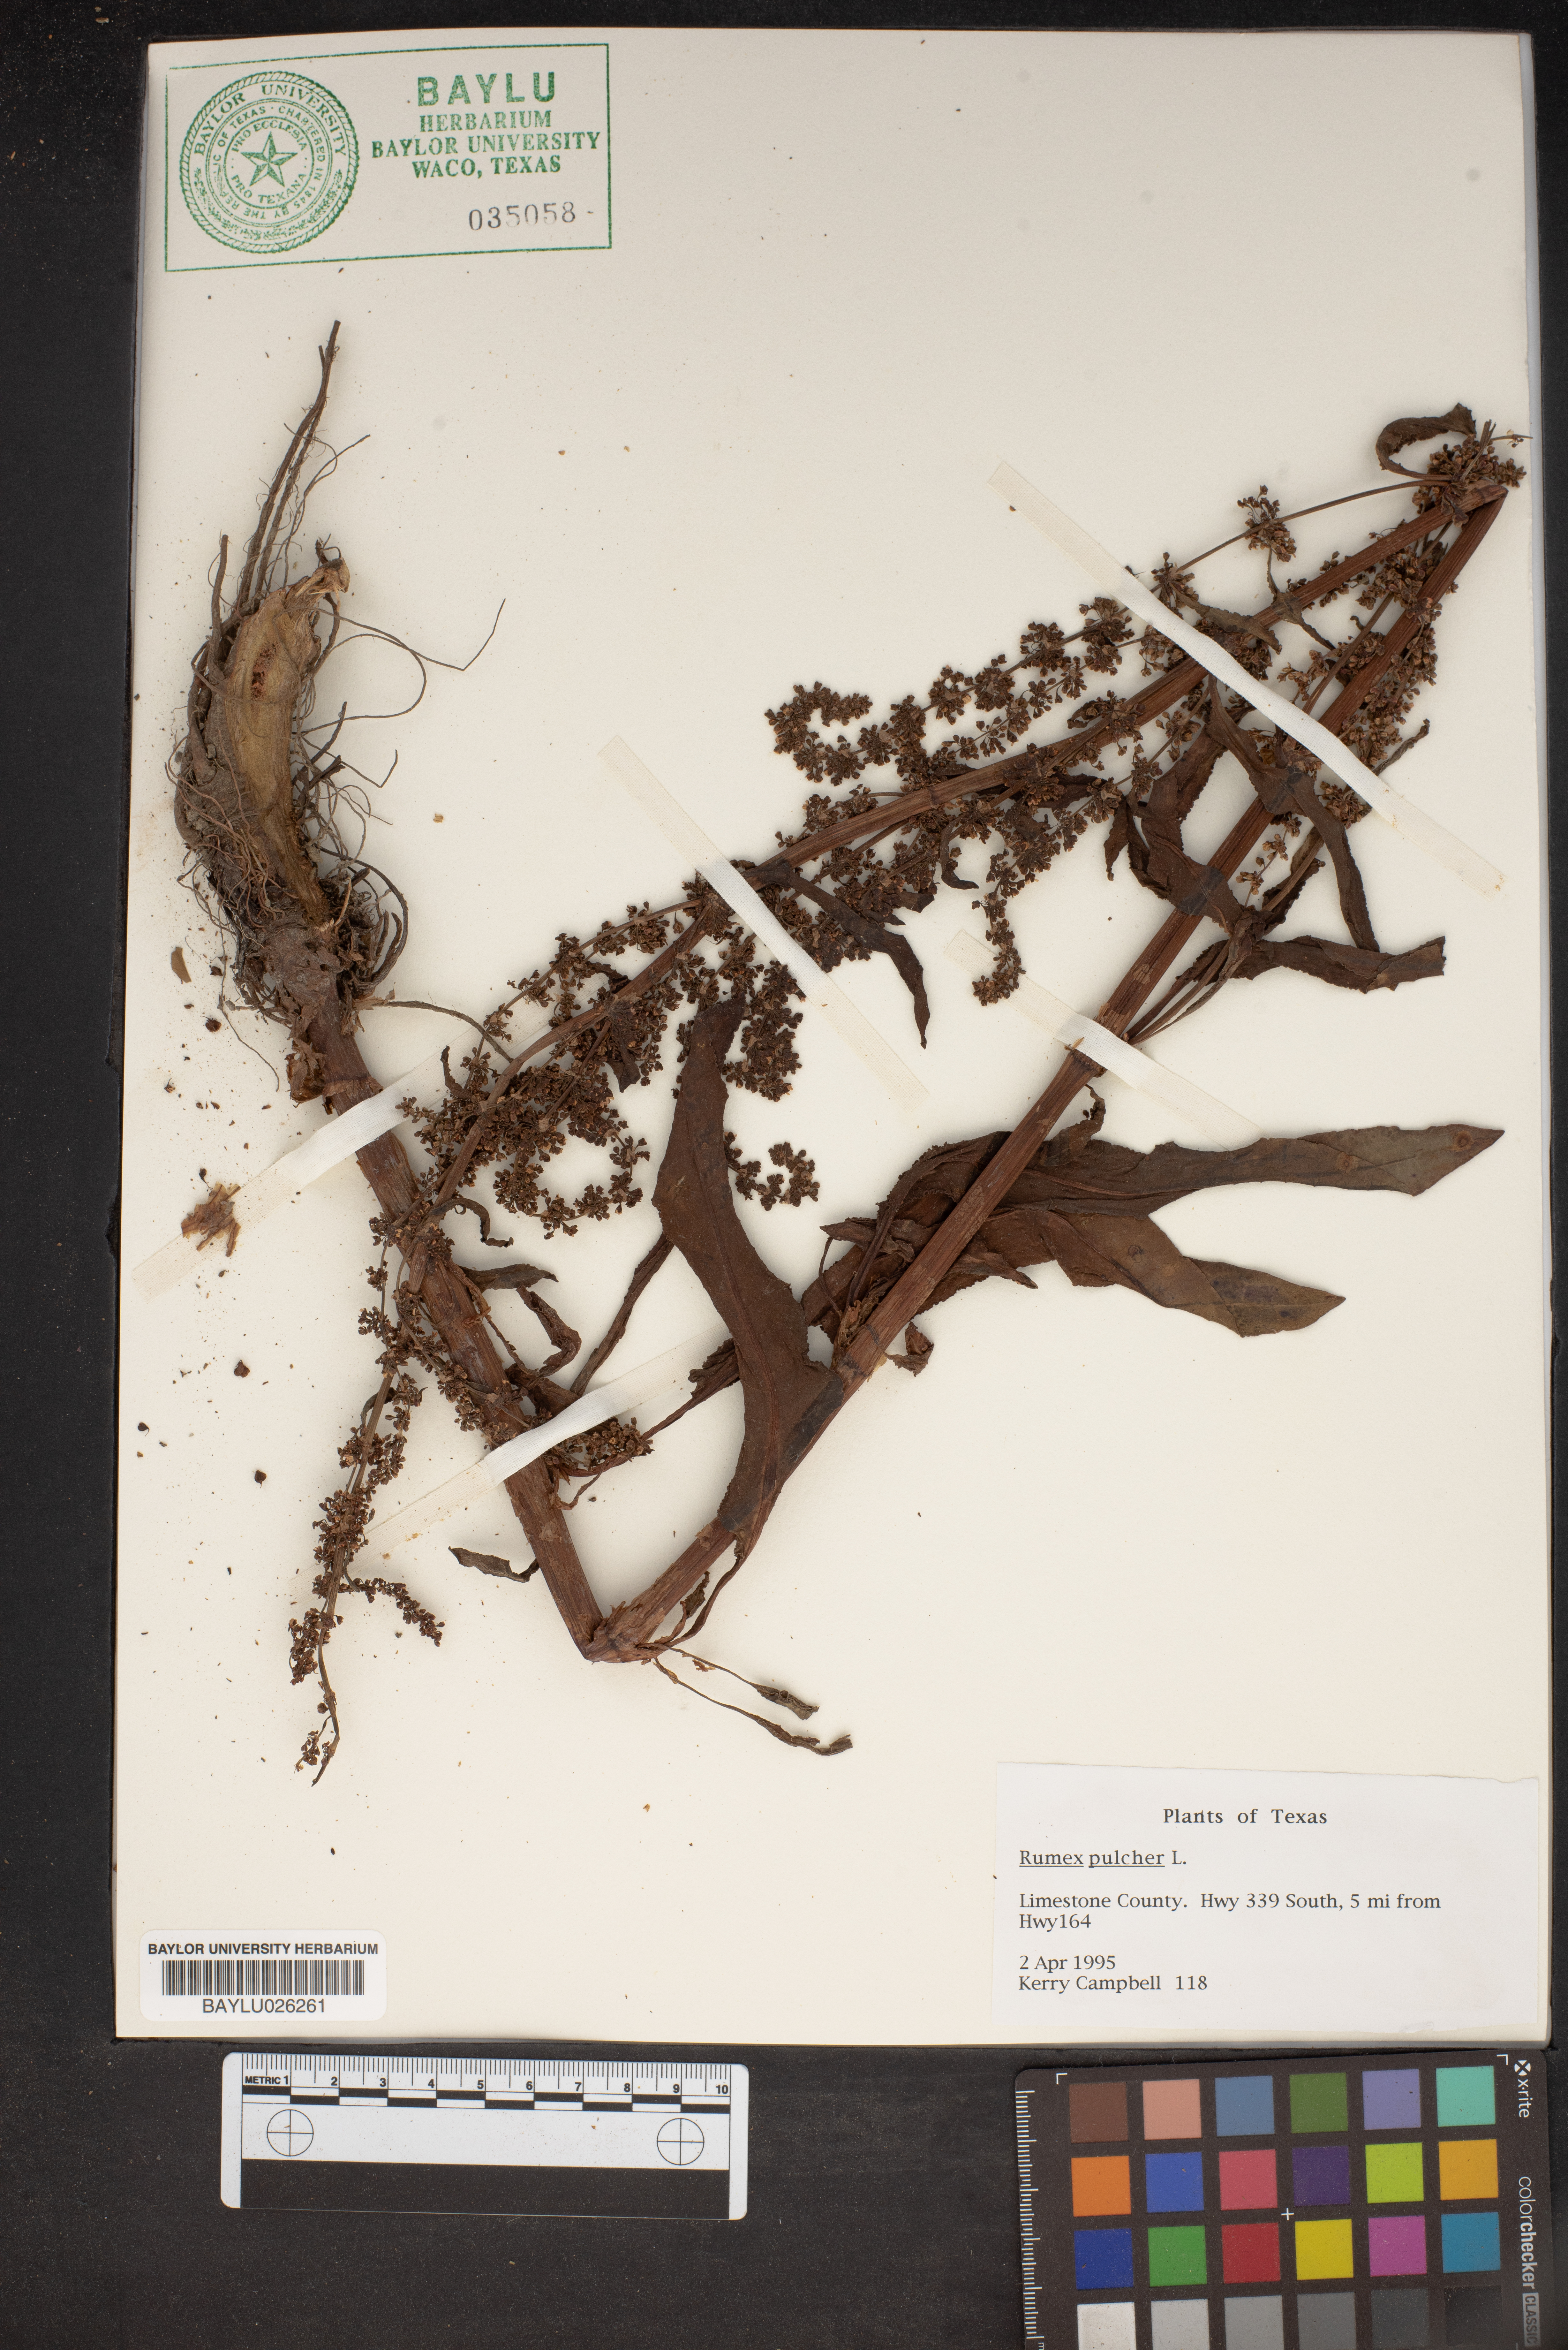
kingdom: Plantae
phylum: Tracheophyta
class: Magnoliopsida
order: Caryophyllales
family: Polygonaceae
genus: Rumex
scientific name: Rumex pulcher
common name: Fiddle dock
